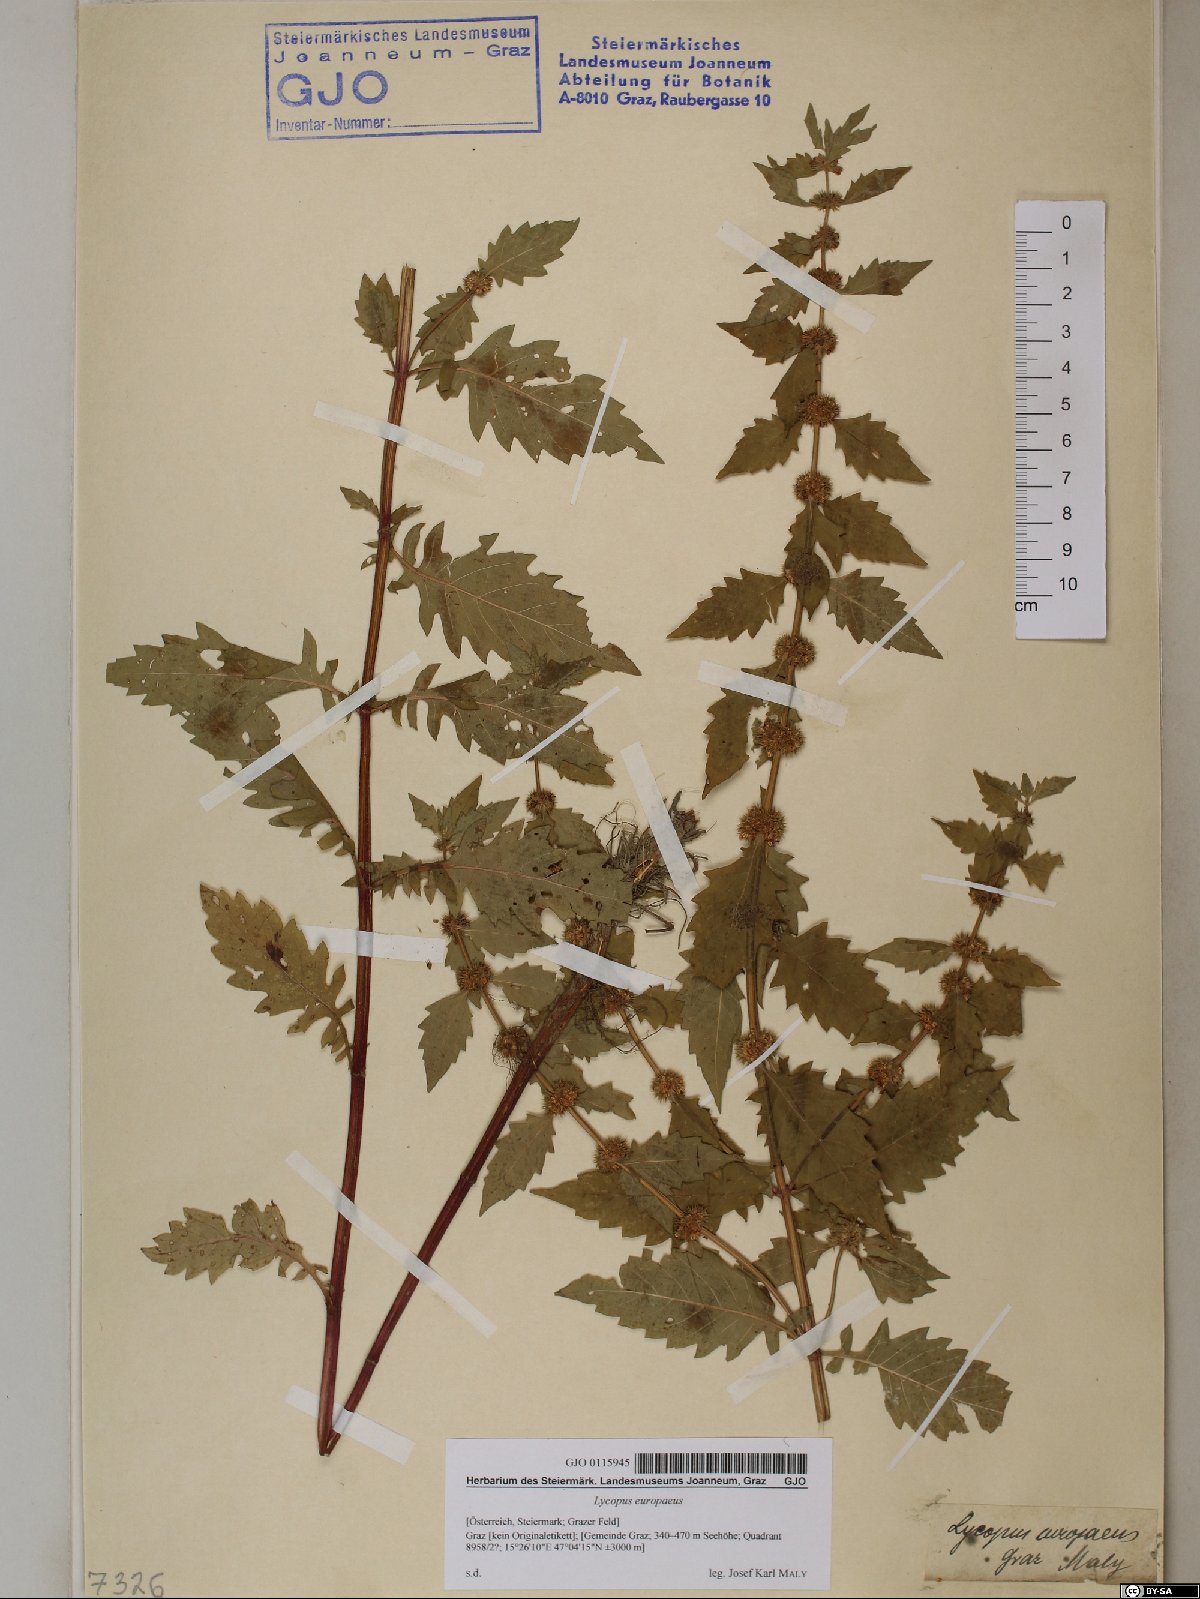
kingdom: Plantae
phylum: Tracheophyta
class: Magnoliopsida
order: Lamiales
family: Lamiaceae
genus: Lycopus
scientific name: Lycopus europaeus
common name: European bugleweed
